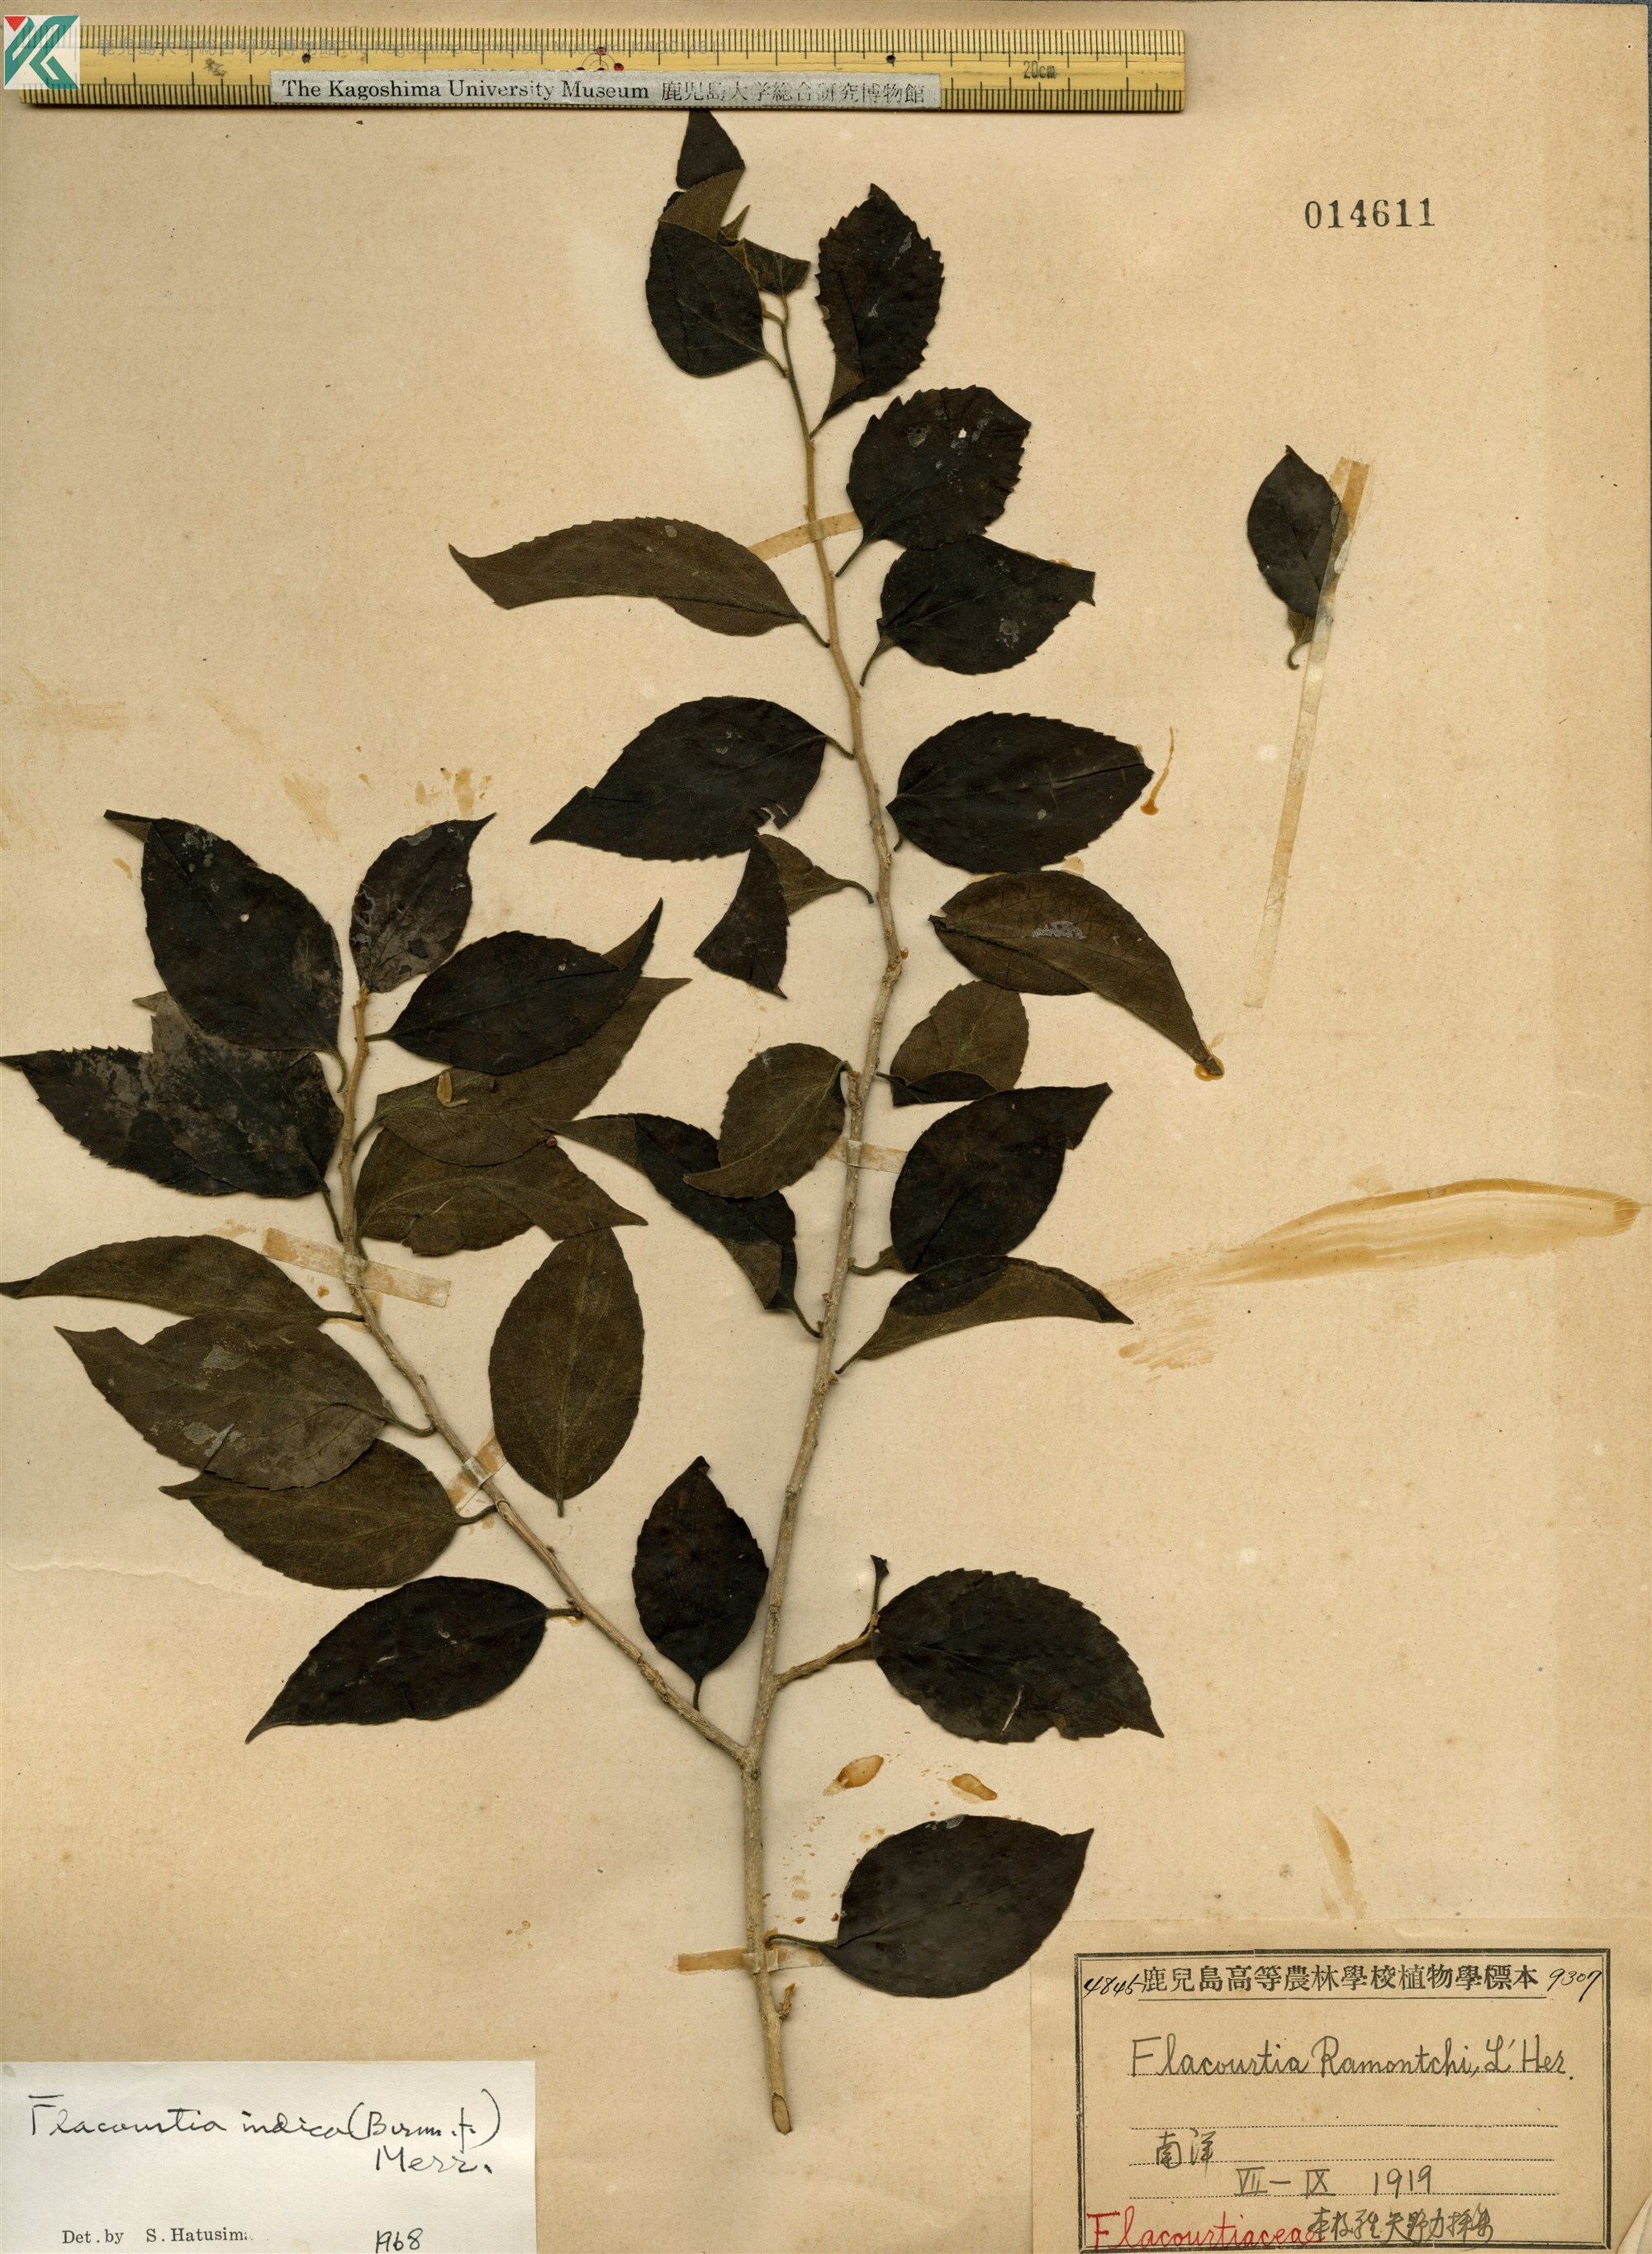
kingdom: Plantae
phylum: Tracheophyta
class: Magnoliopsida
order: Malpighiales
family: Salicaceae
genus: Flacourtia
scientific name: Flacourtia indica
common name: Governor's plum
